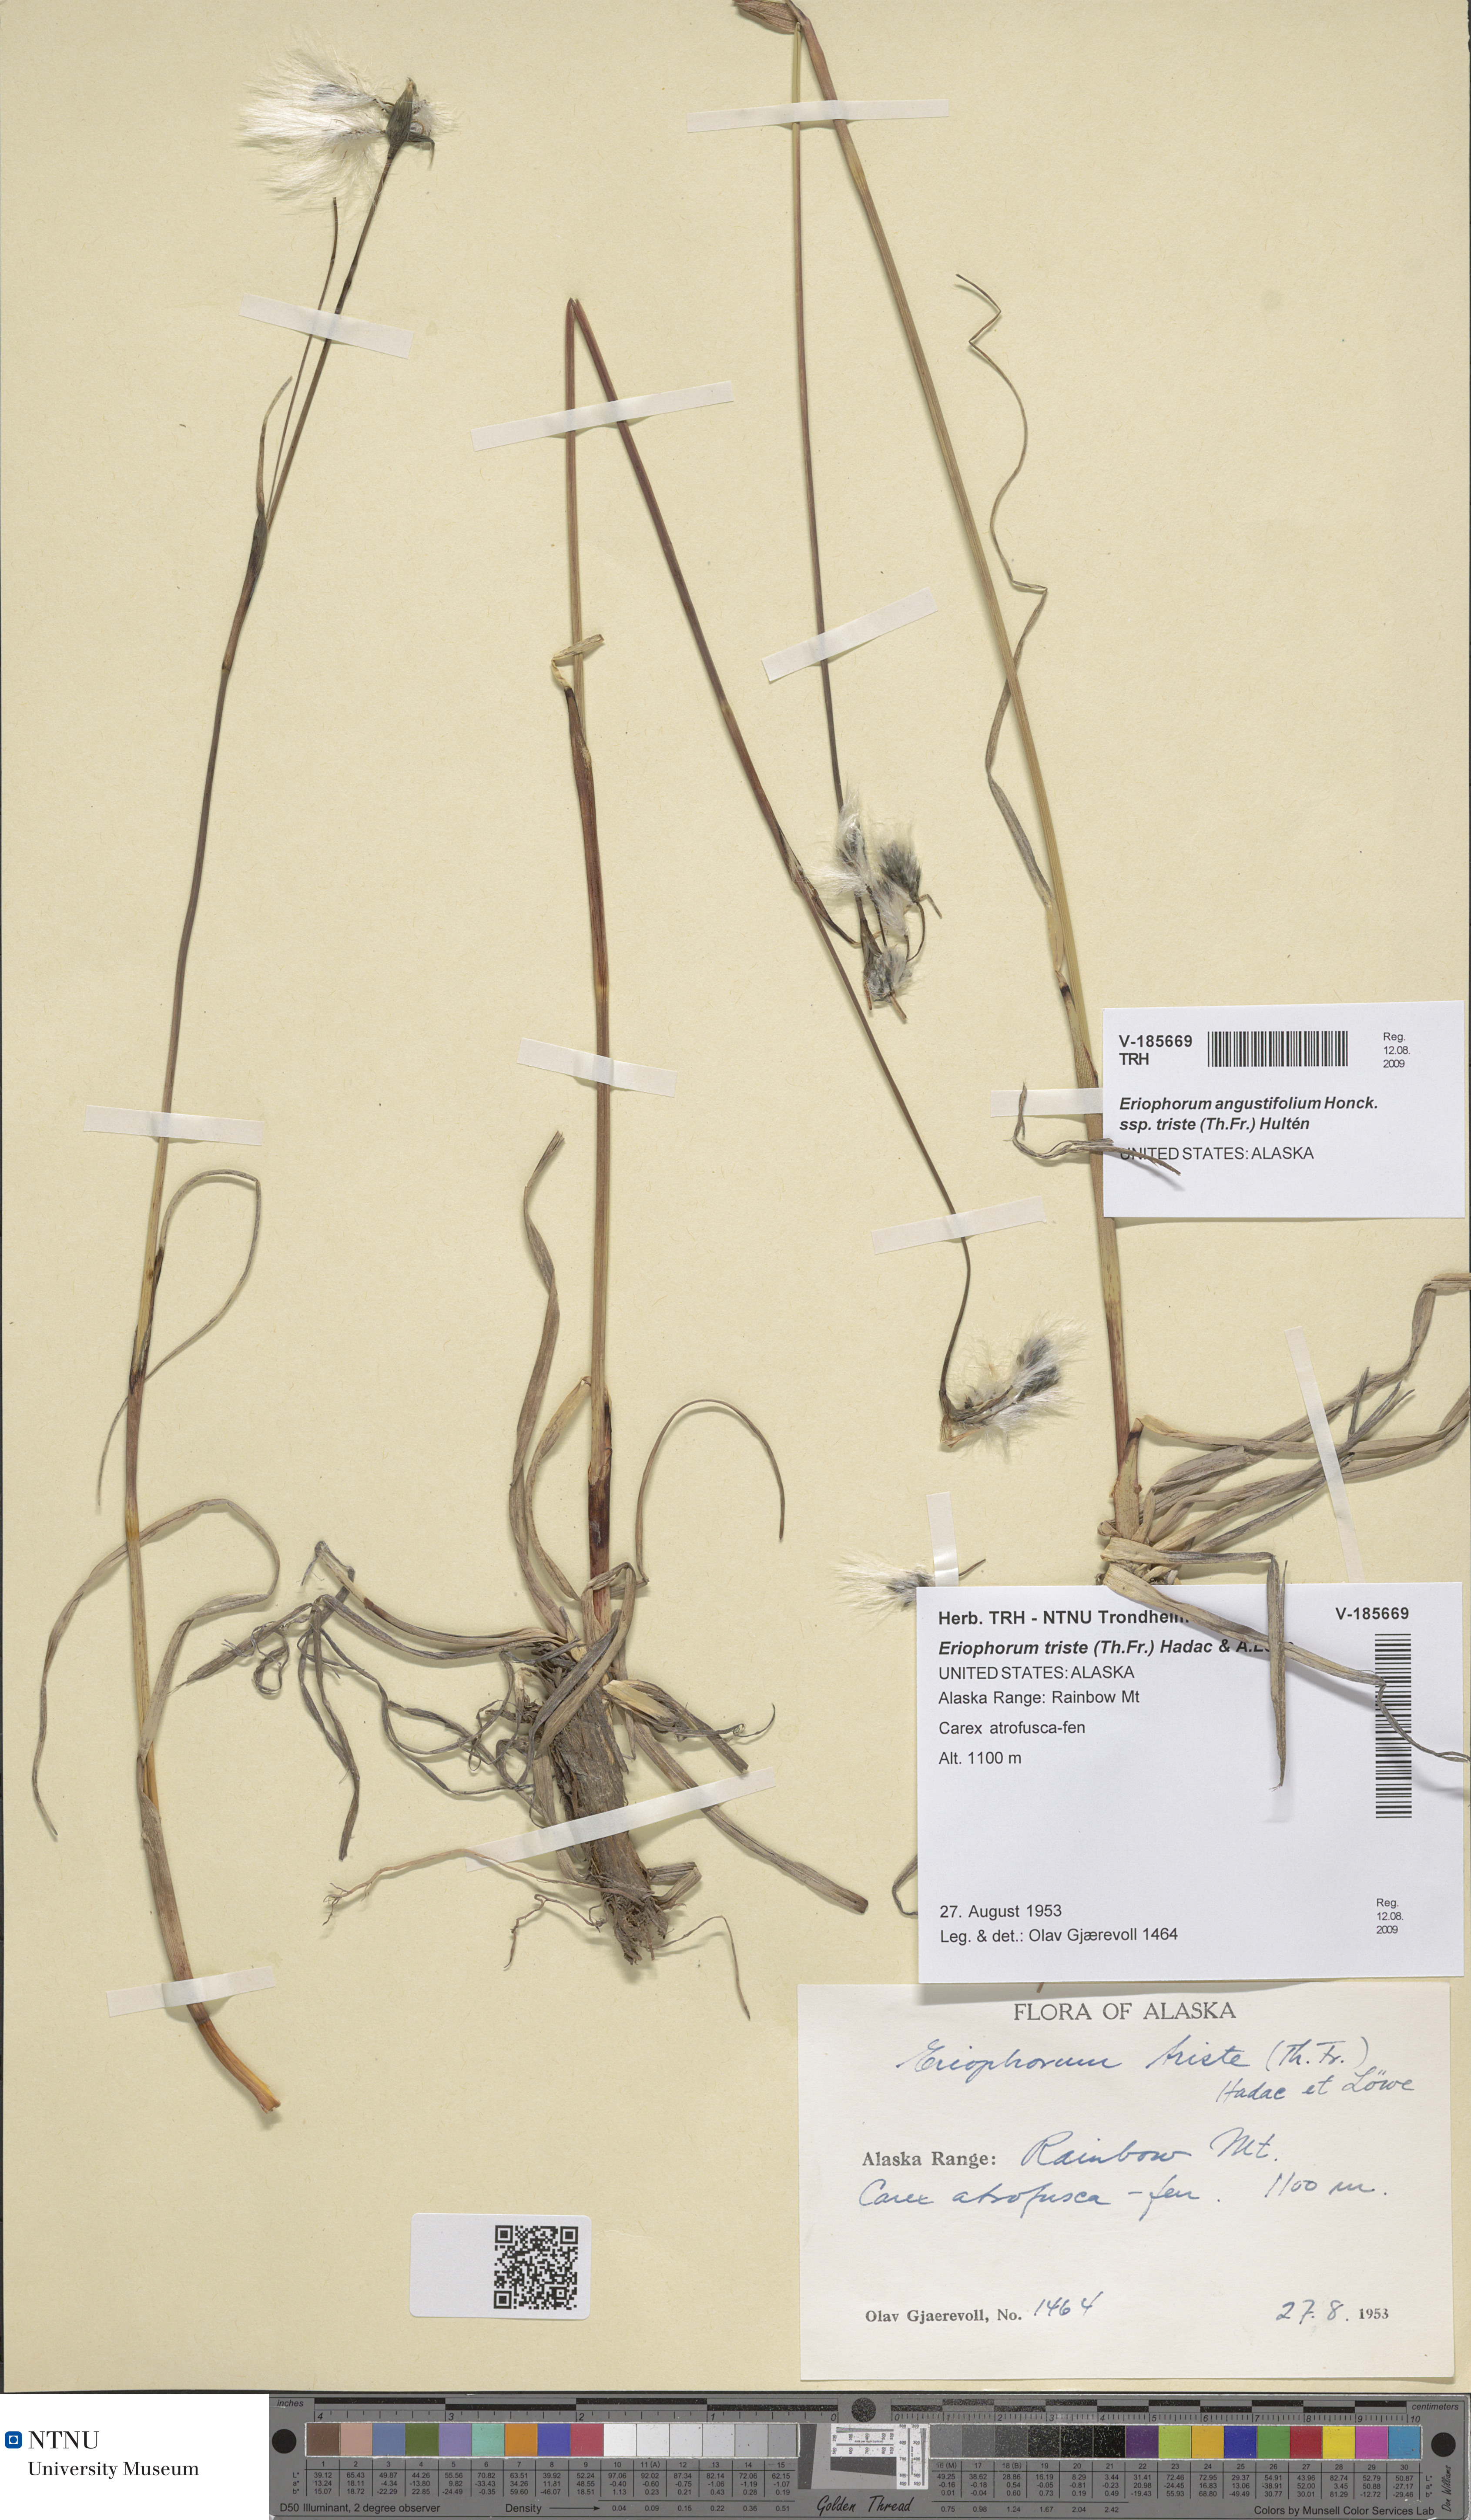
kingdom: Plantae
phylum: Tracheophyta
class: Liliopsida
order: Poales
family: Cyperaceae
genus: Eriophorum
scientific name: Eriophorum triste
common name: Tall cottongrass
